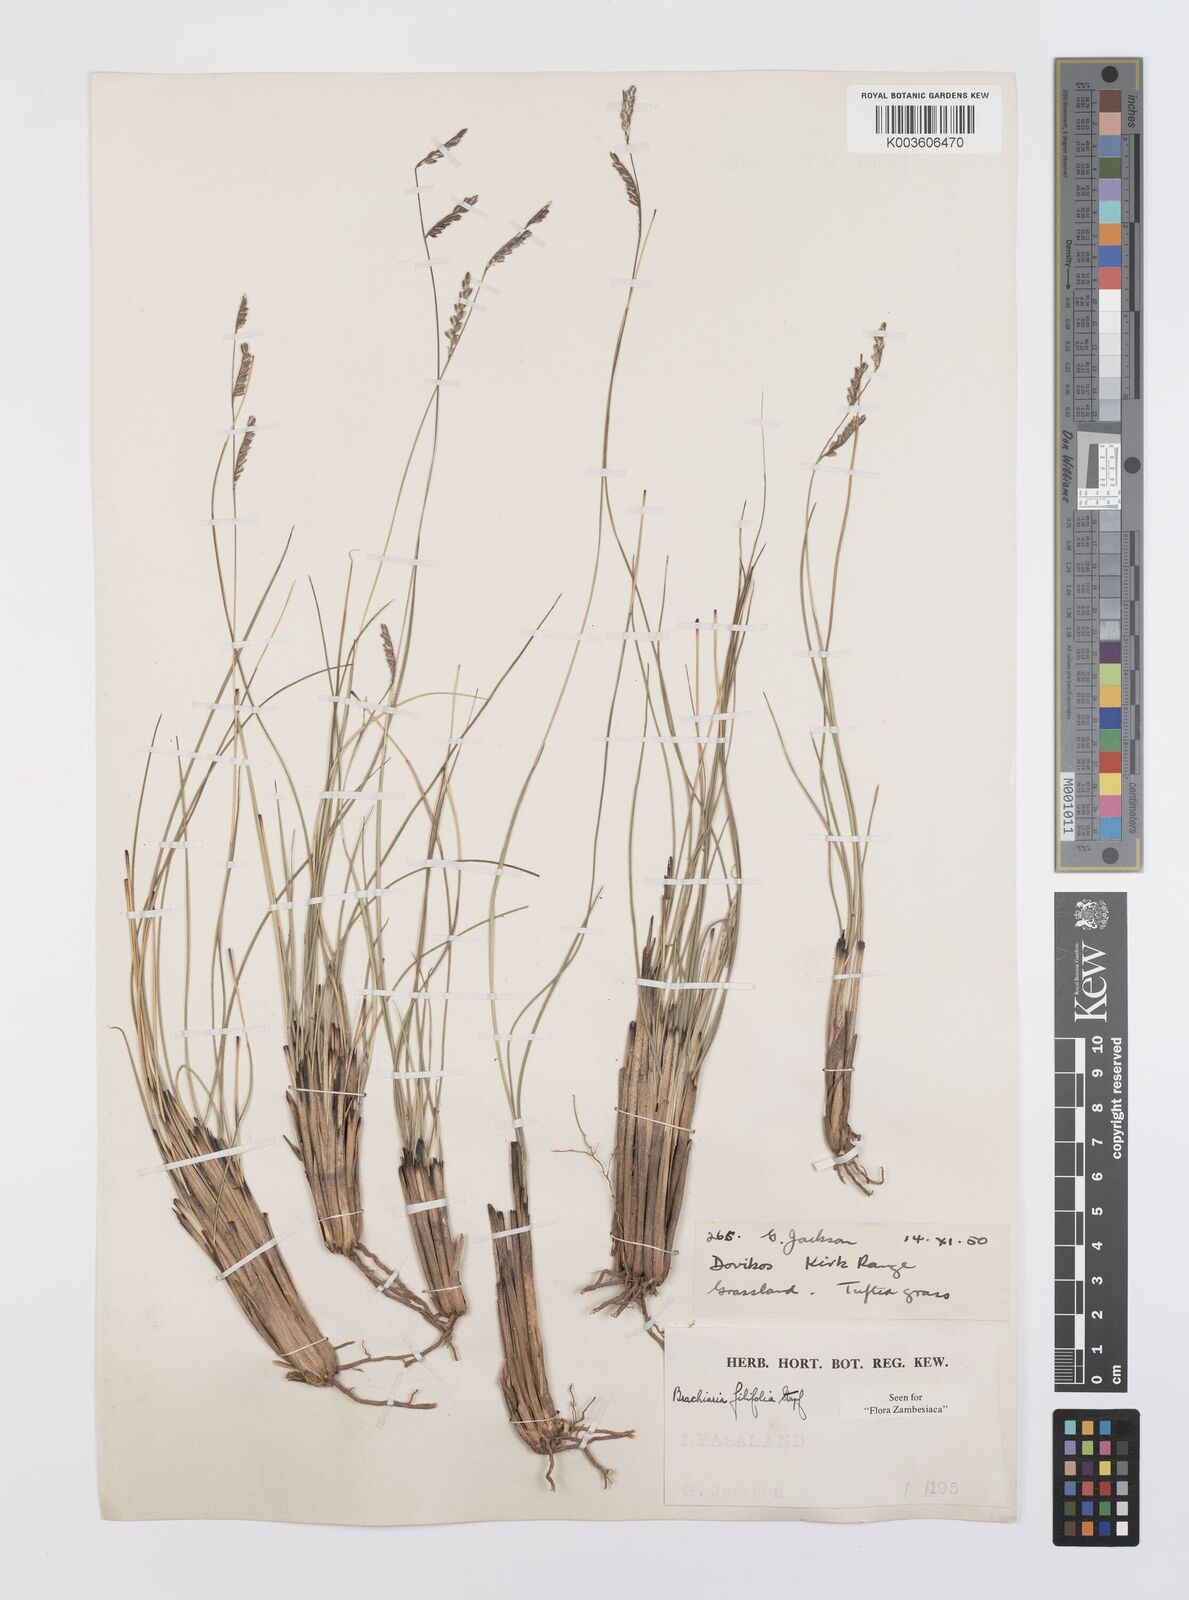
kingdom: Plantae
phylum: Tracheophyta
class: Liliopsida
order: Poales
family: Poaceae
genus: Urochloa
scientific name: Urochloa subulifolia
